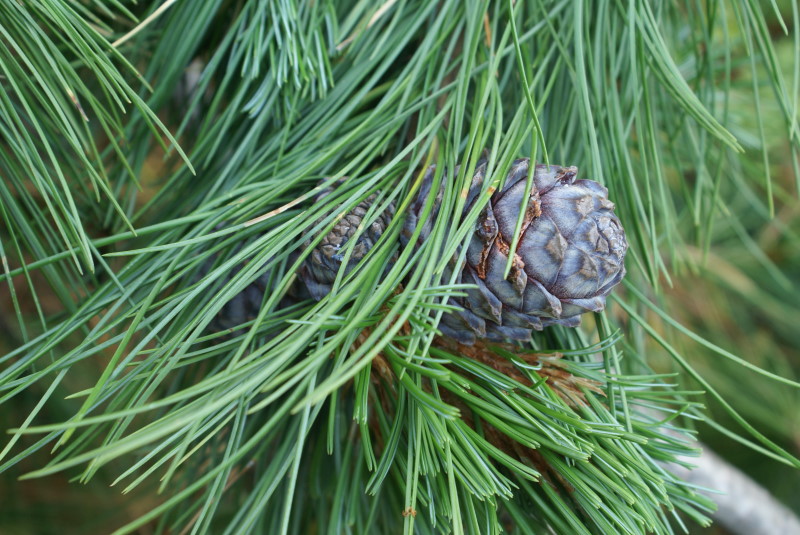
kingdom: Plantae
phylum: Tracheophyta
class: Pinopsida
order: Pinales
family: Pinaceae
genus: Pinus
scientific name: Pinus sibirica
